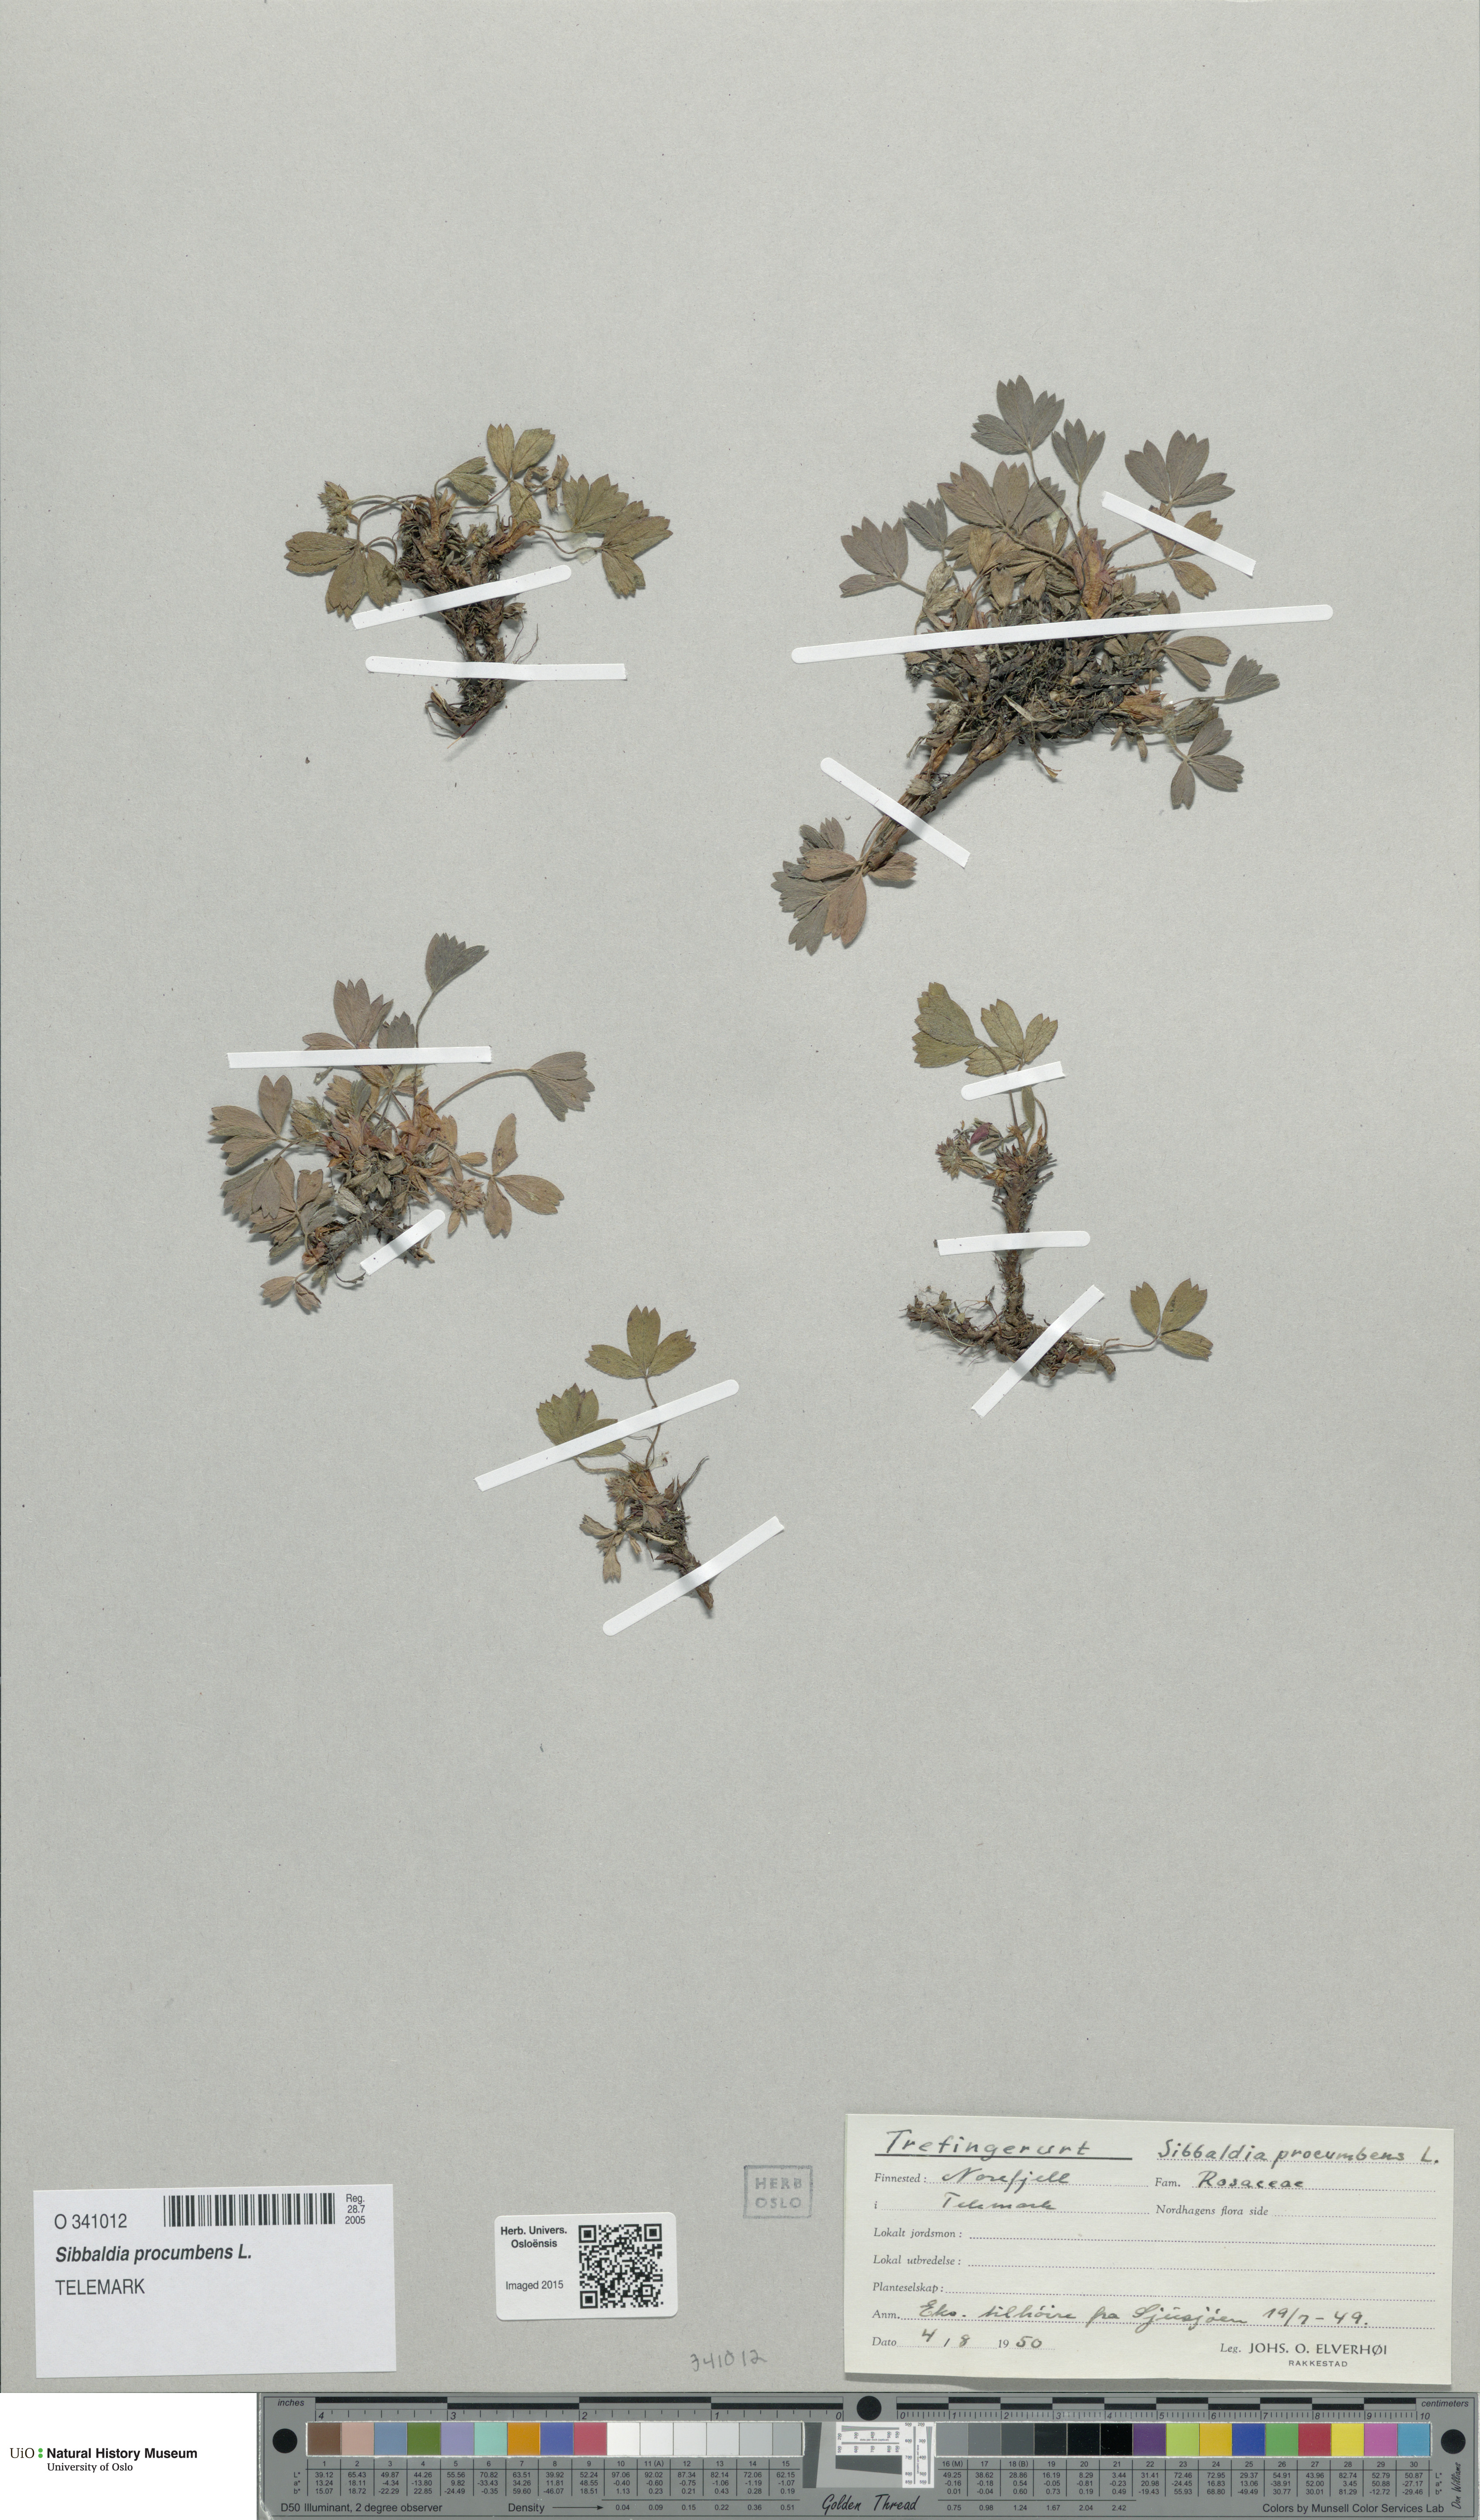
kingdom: Plantae
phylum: Tracheophyta
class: Magnoliopsida
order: Rosales
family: Rosaceae
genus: Sibbaldia
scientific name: Sibbaldia procumbens
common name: Creeping sibbaldia
